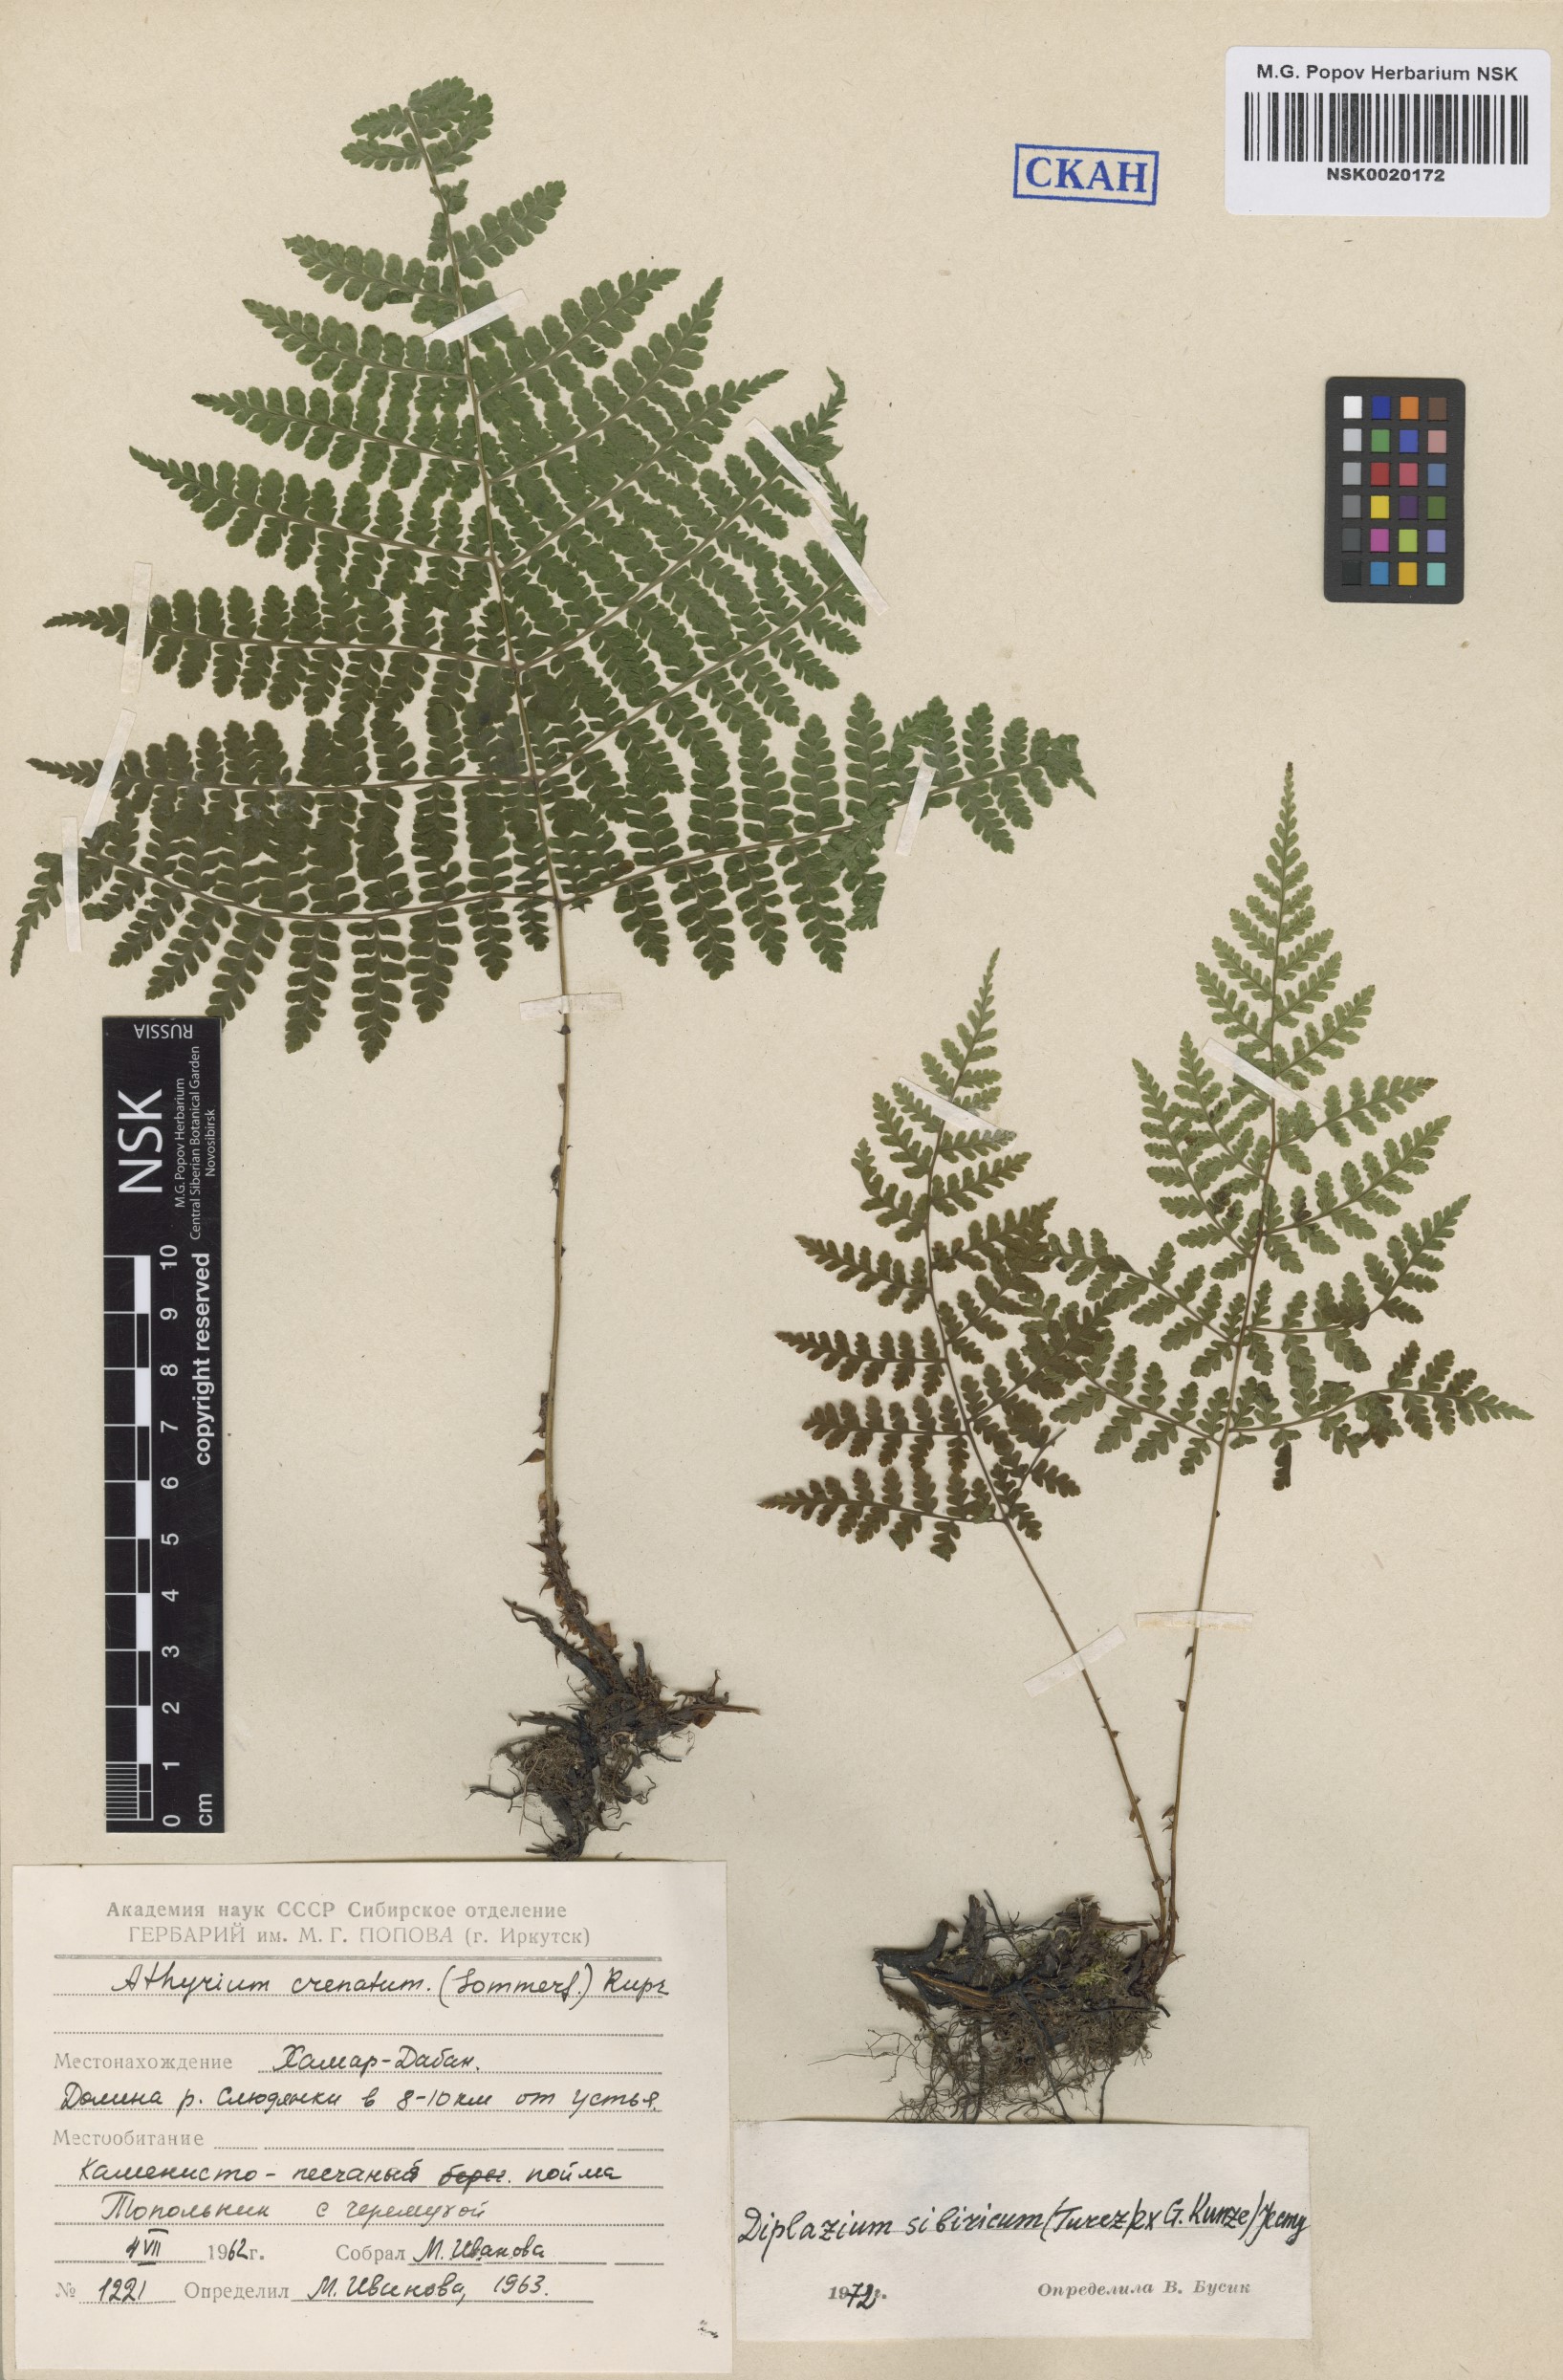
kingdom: Plantae
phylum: Tracheophyta
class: Polypodiopsida
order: Polypodiales
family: Athyriaceae
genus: Diplazium
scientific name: Diplazium sibiricum
